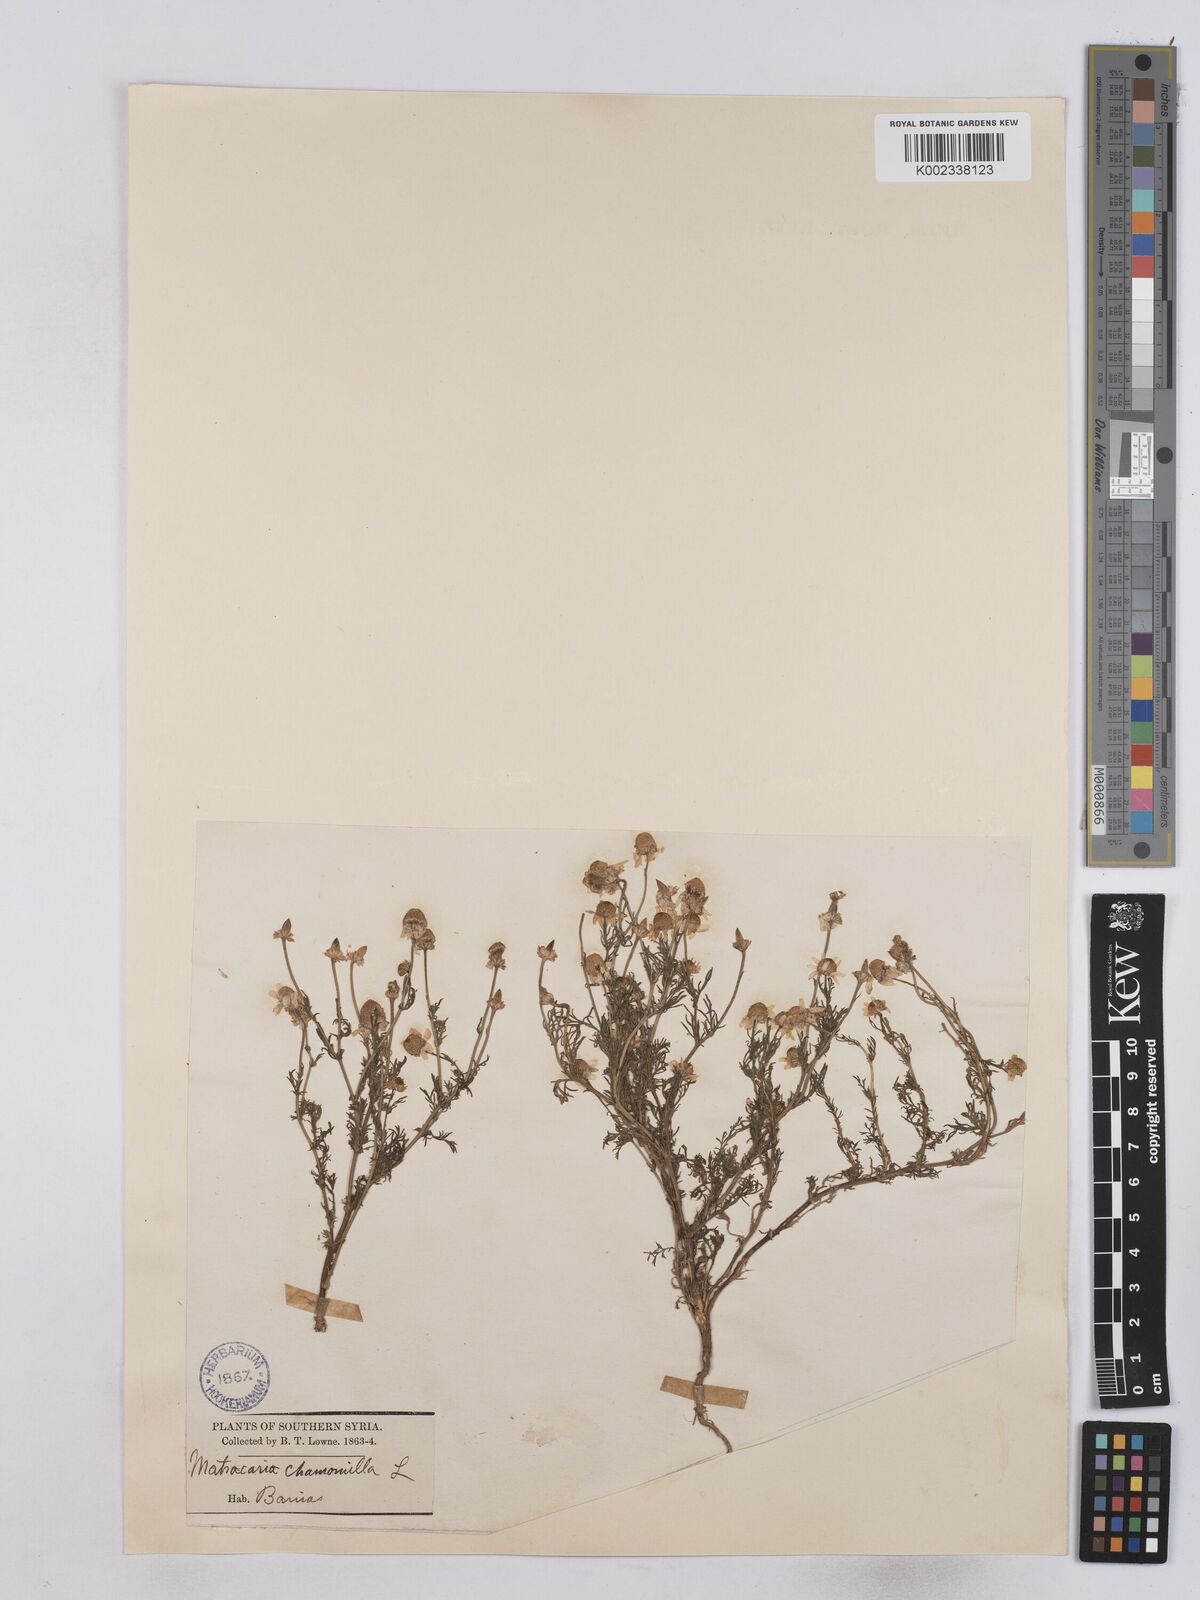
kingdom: Plantae
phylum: Tracheophyta
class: Magnoliopsida
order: Asterales
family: Asteraceae
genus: Matricaria
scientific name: Matricaria chamomilla
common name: Scented mayweed
